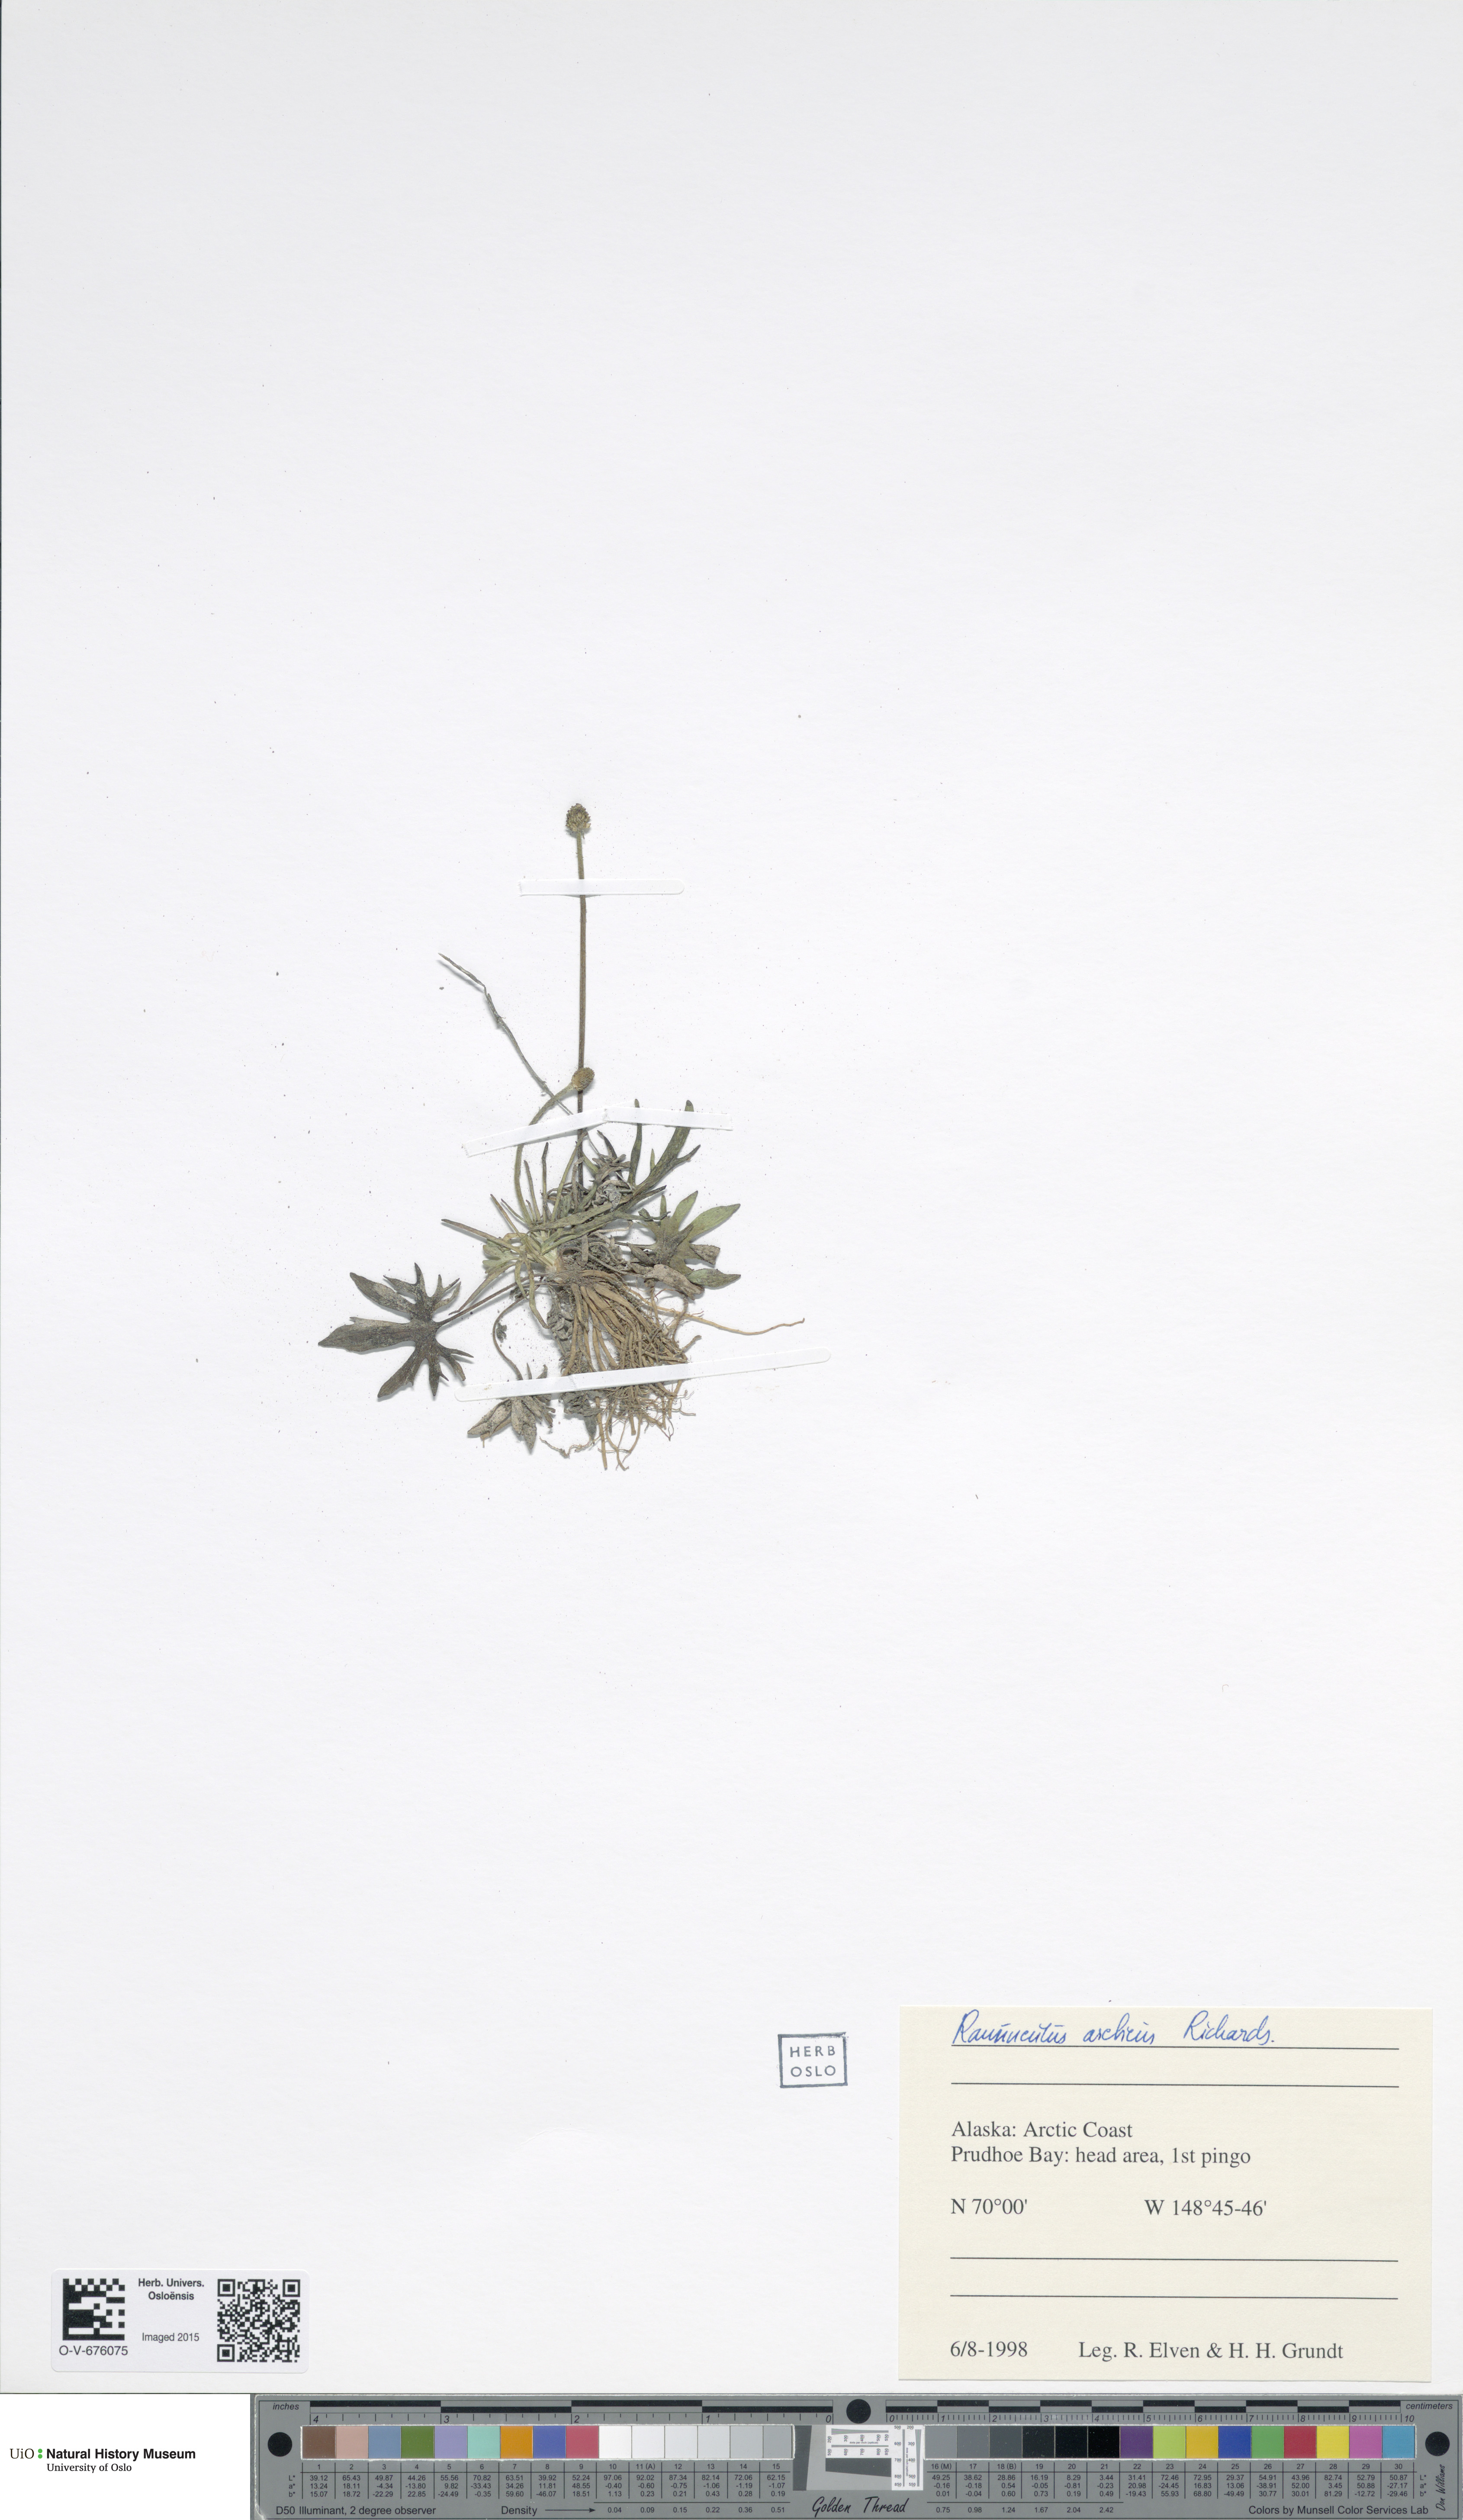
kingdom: Plantae
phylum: Tracheophyta
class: Magnoliopsida
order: Ranunculales
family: Ranunculaceae
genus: Ranunculus
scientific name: Ranunculus arcticus
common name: Bird's-foot buttercup
